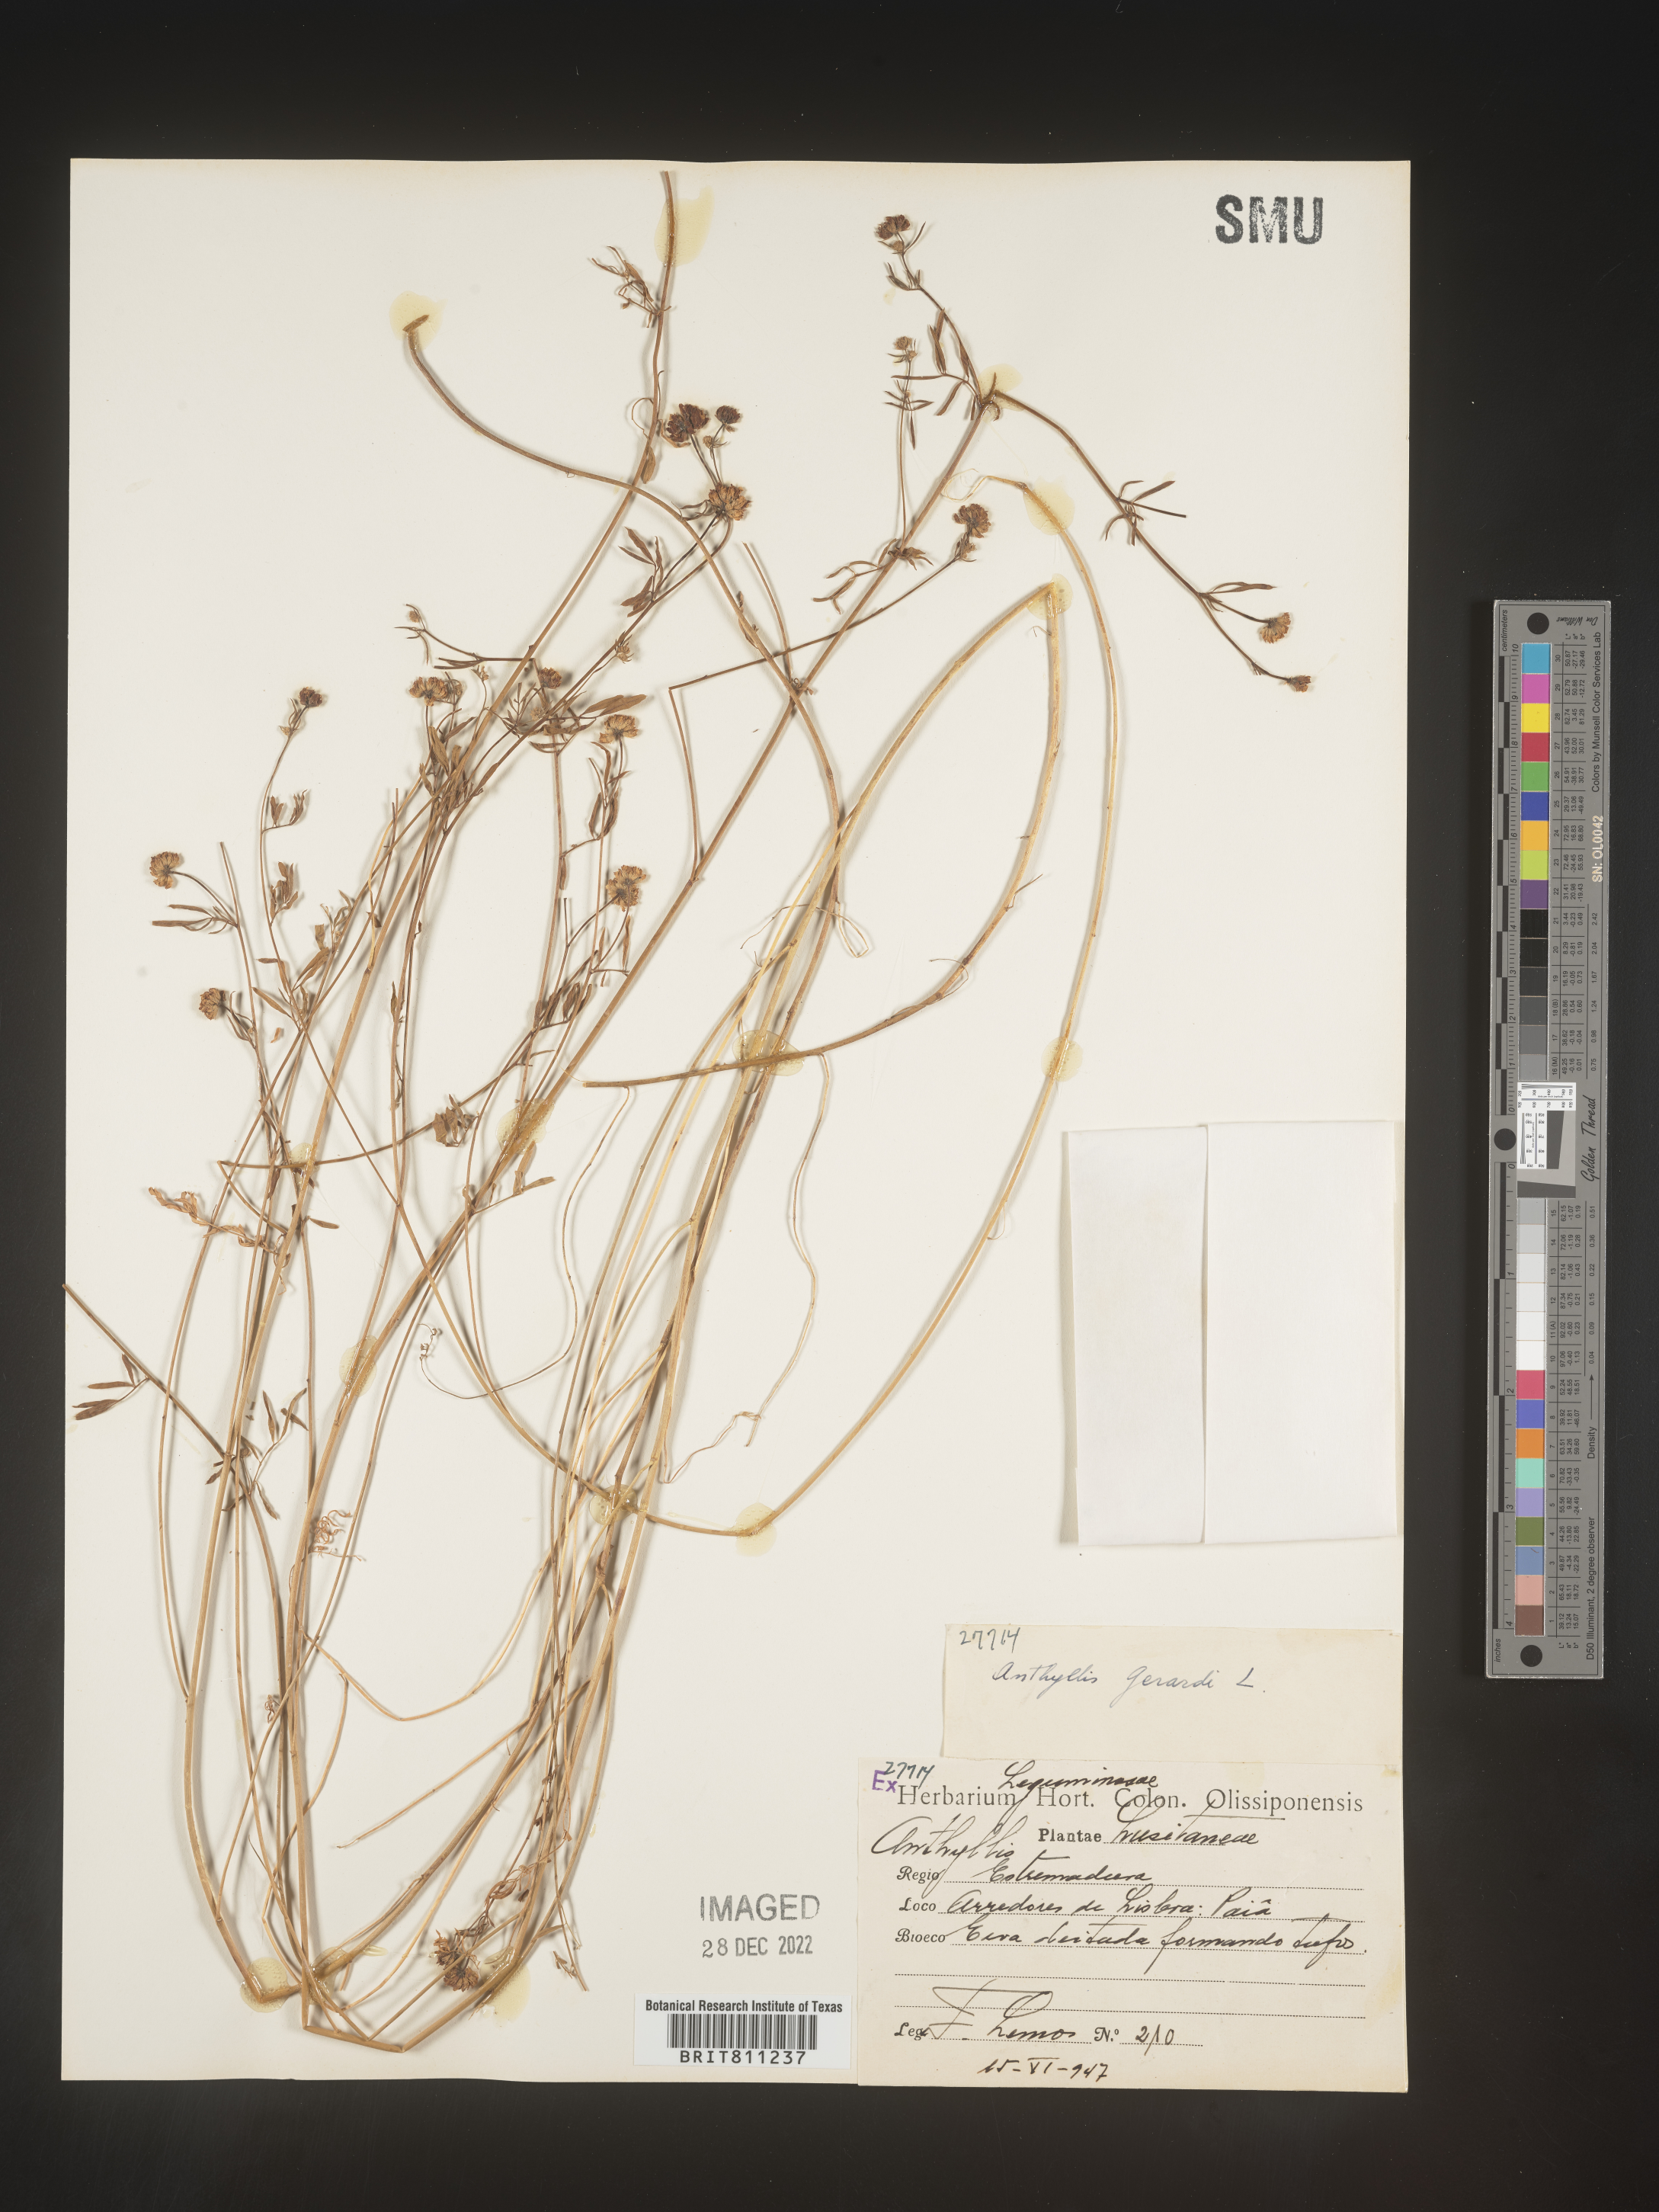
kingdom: Plantae
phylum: Tracheophyta
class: Magnoliopsida
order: Fabales
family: Fabaceae
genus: Anthyllis
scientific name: Anthyllis
